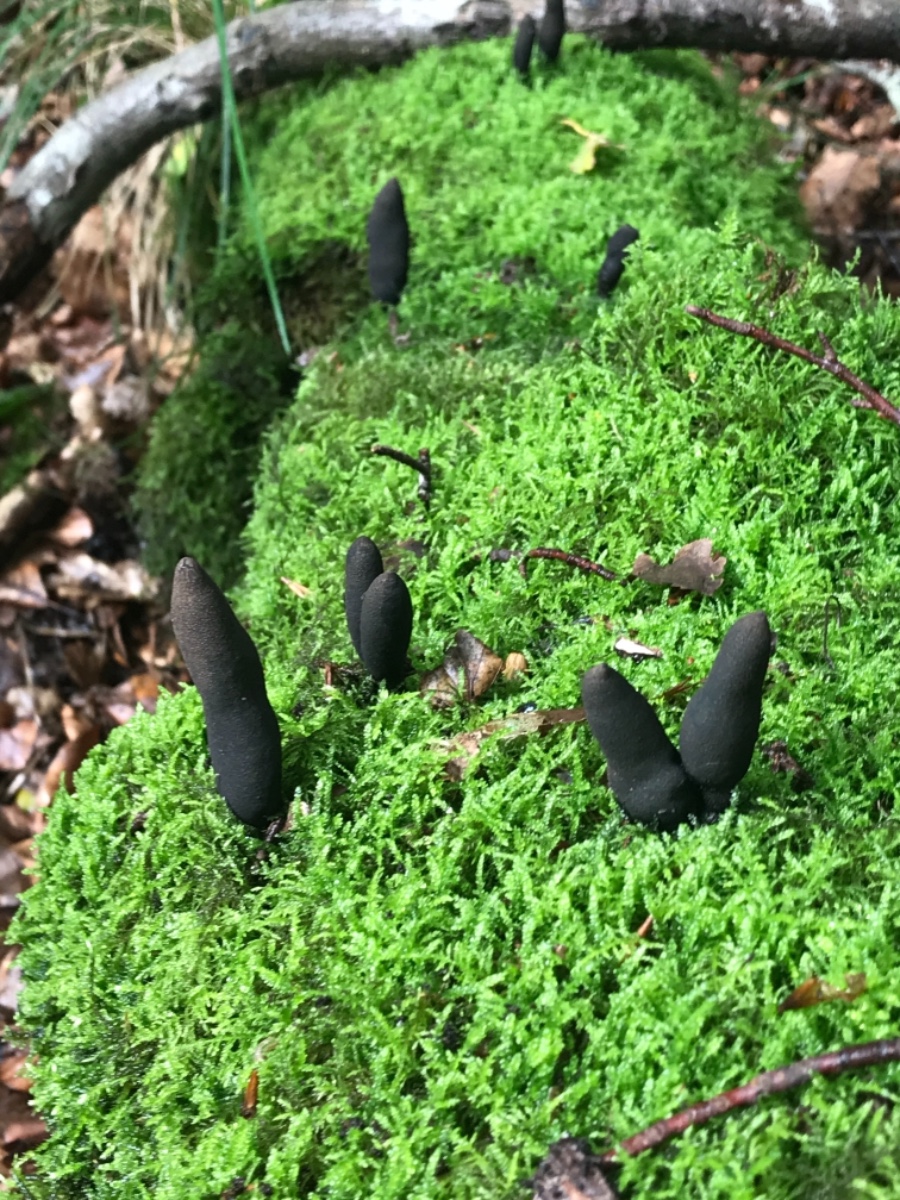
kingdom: Fungi
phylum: Ascomycota
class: Sordariomycetes
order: Xylariales
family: Xylariaceae
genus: Xylaria
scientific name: Xylaria polymorpha
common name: kølle-stødsvamp
